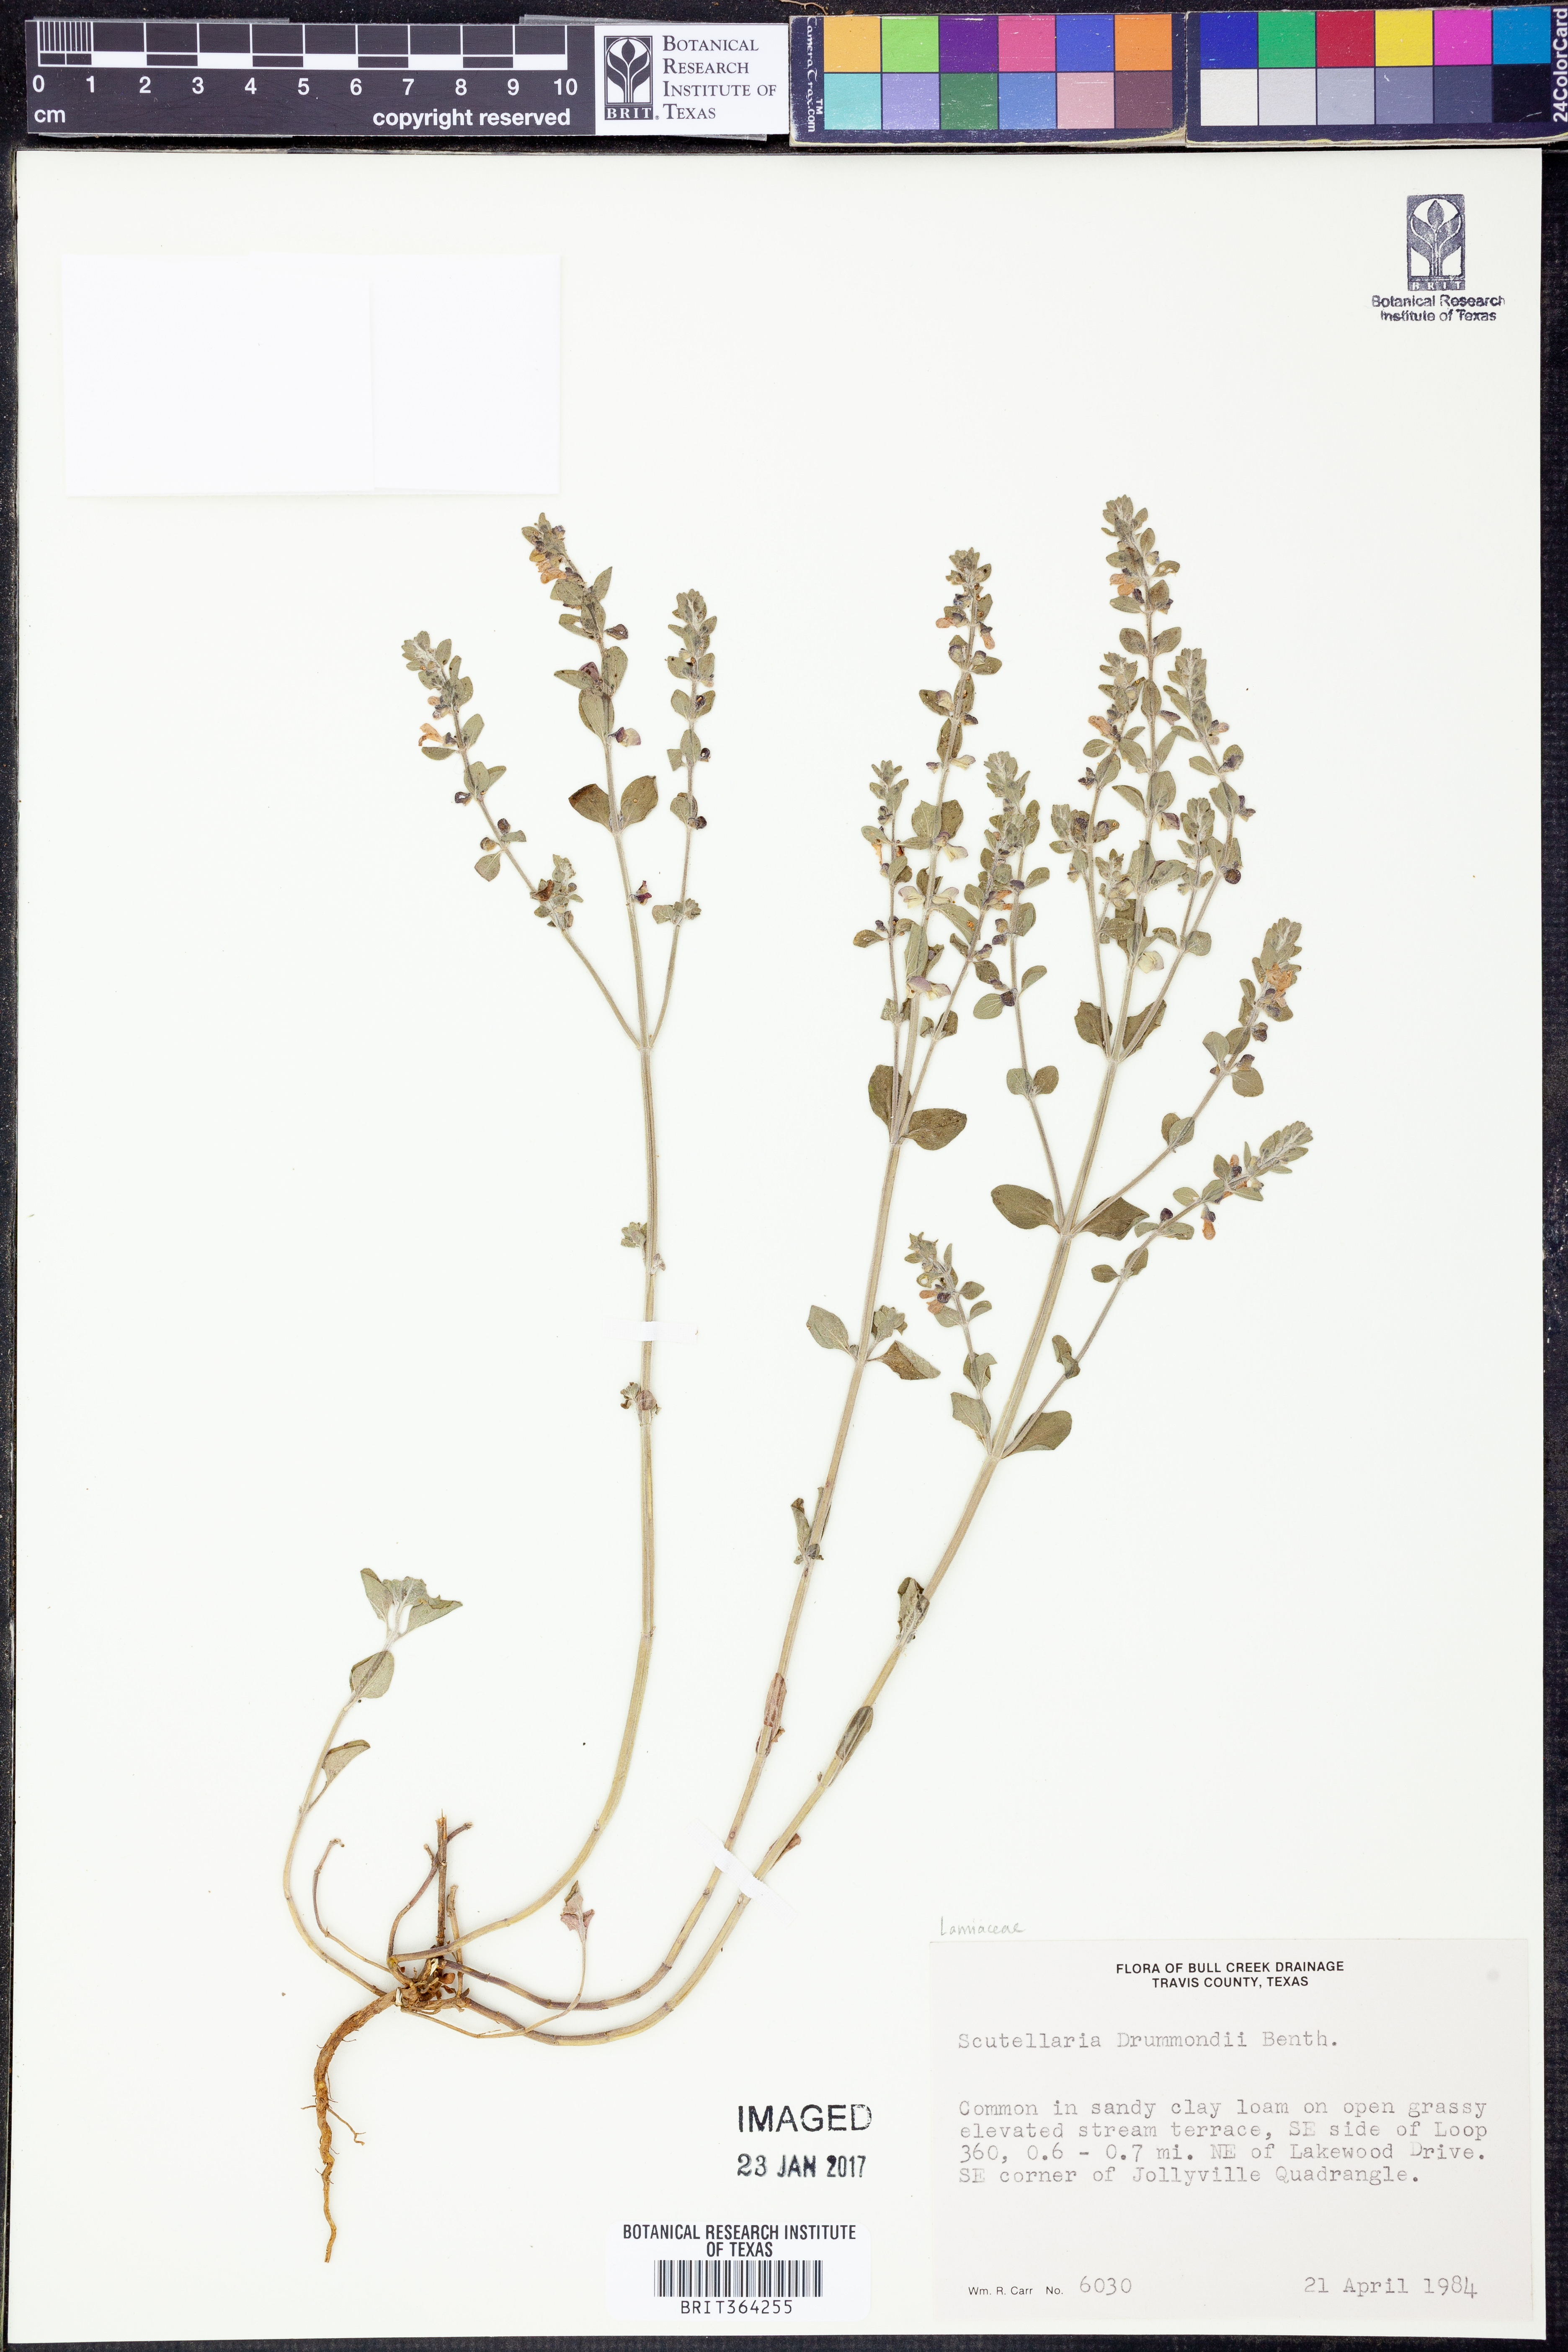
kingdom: Plantae
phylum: Tracheophyta
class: Magnoliopsida
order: Lamiales
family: Lamiaceae
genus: Scutellaria
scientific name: Scutellaria drummondii
